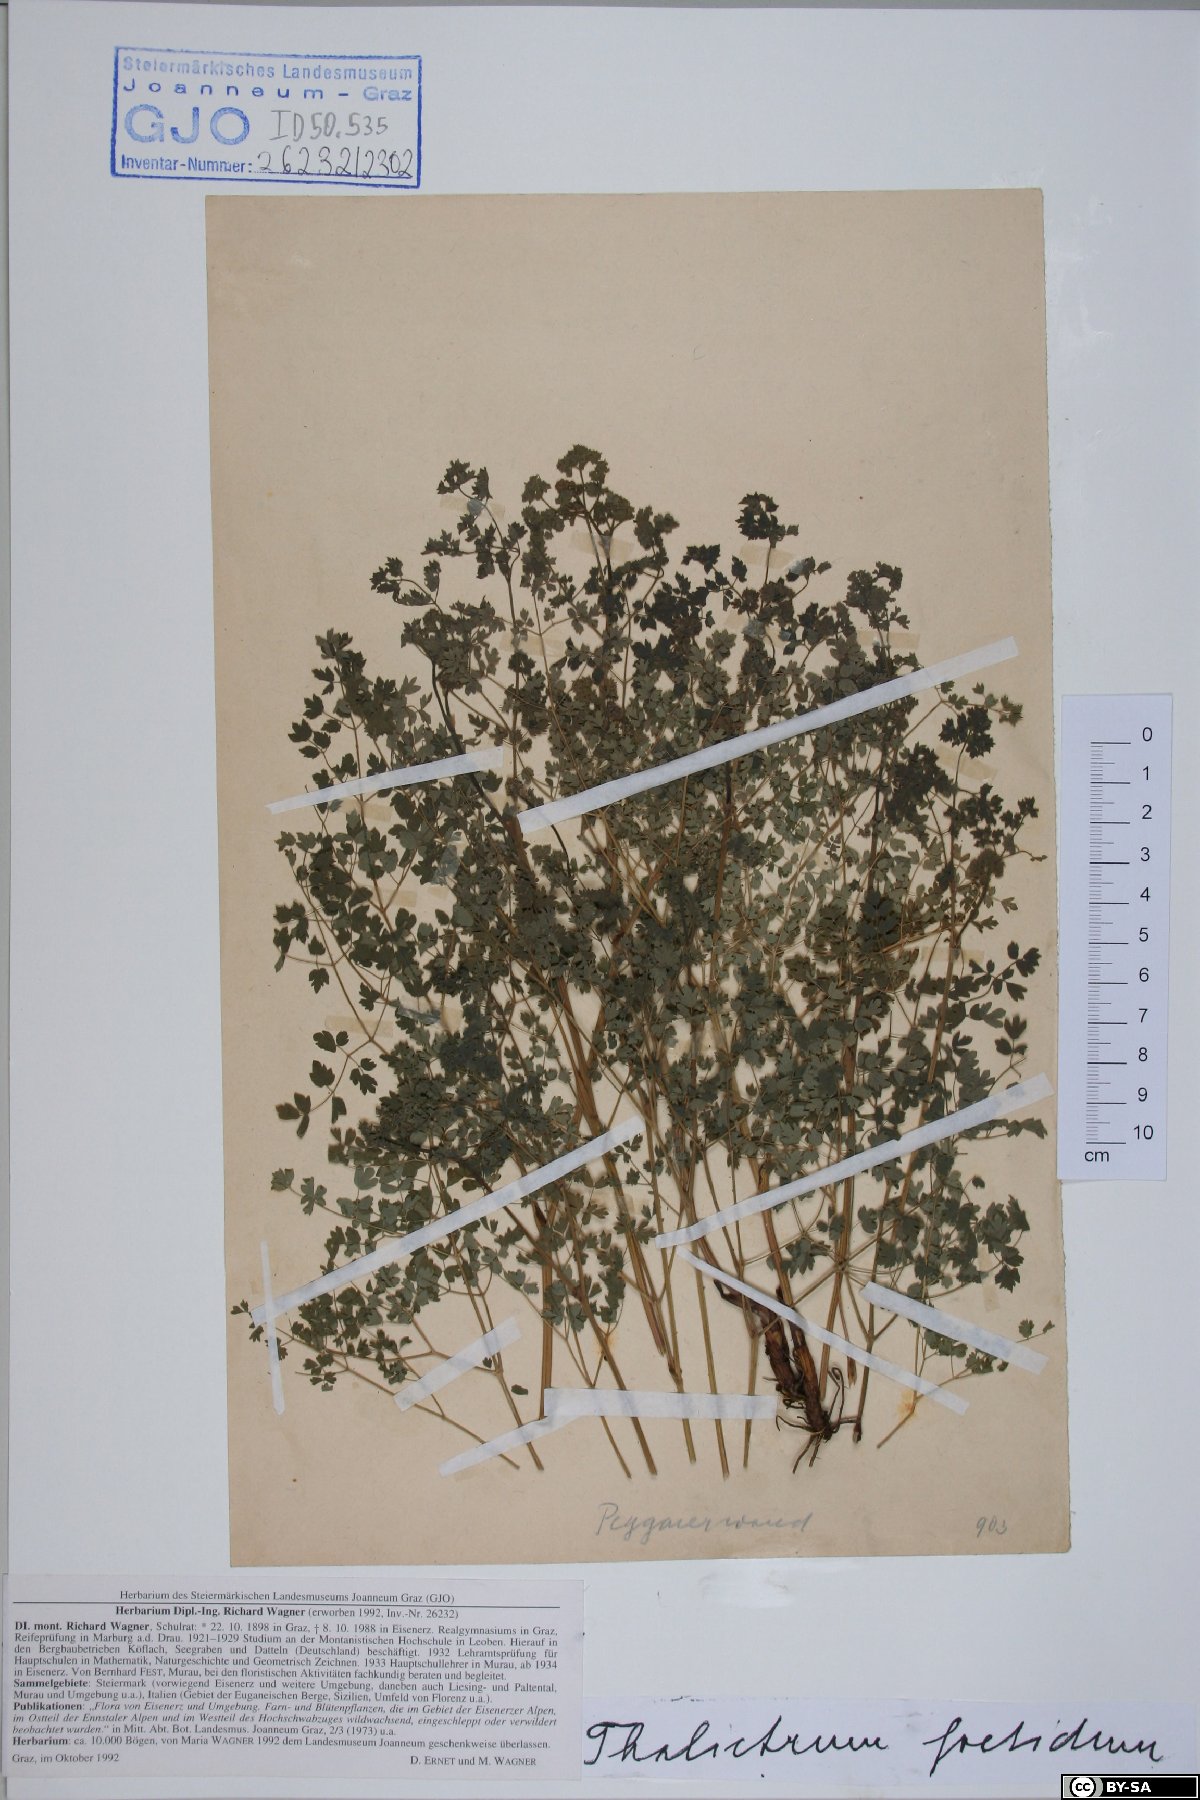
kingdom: Plantae
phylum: Tracheophyta
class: Magnoliopsida
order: Ranunculales
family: Ranunculaceae
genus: Thalictrum
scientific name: Thalictrum foetidum
